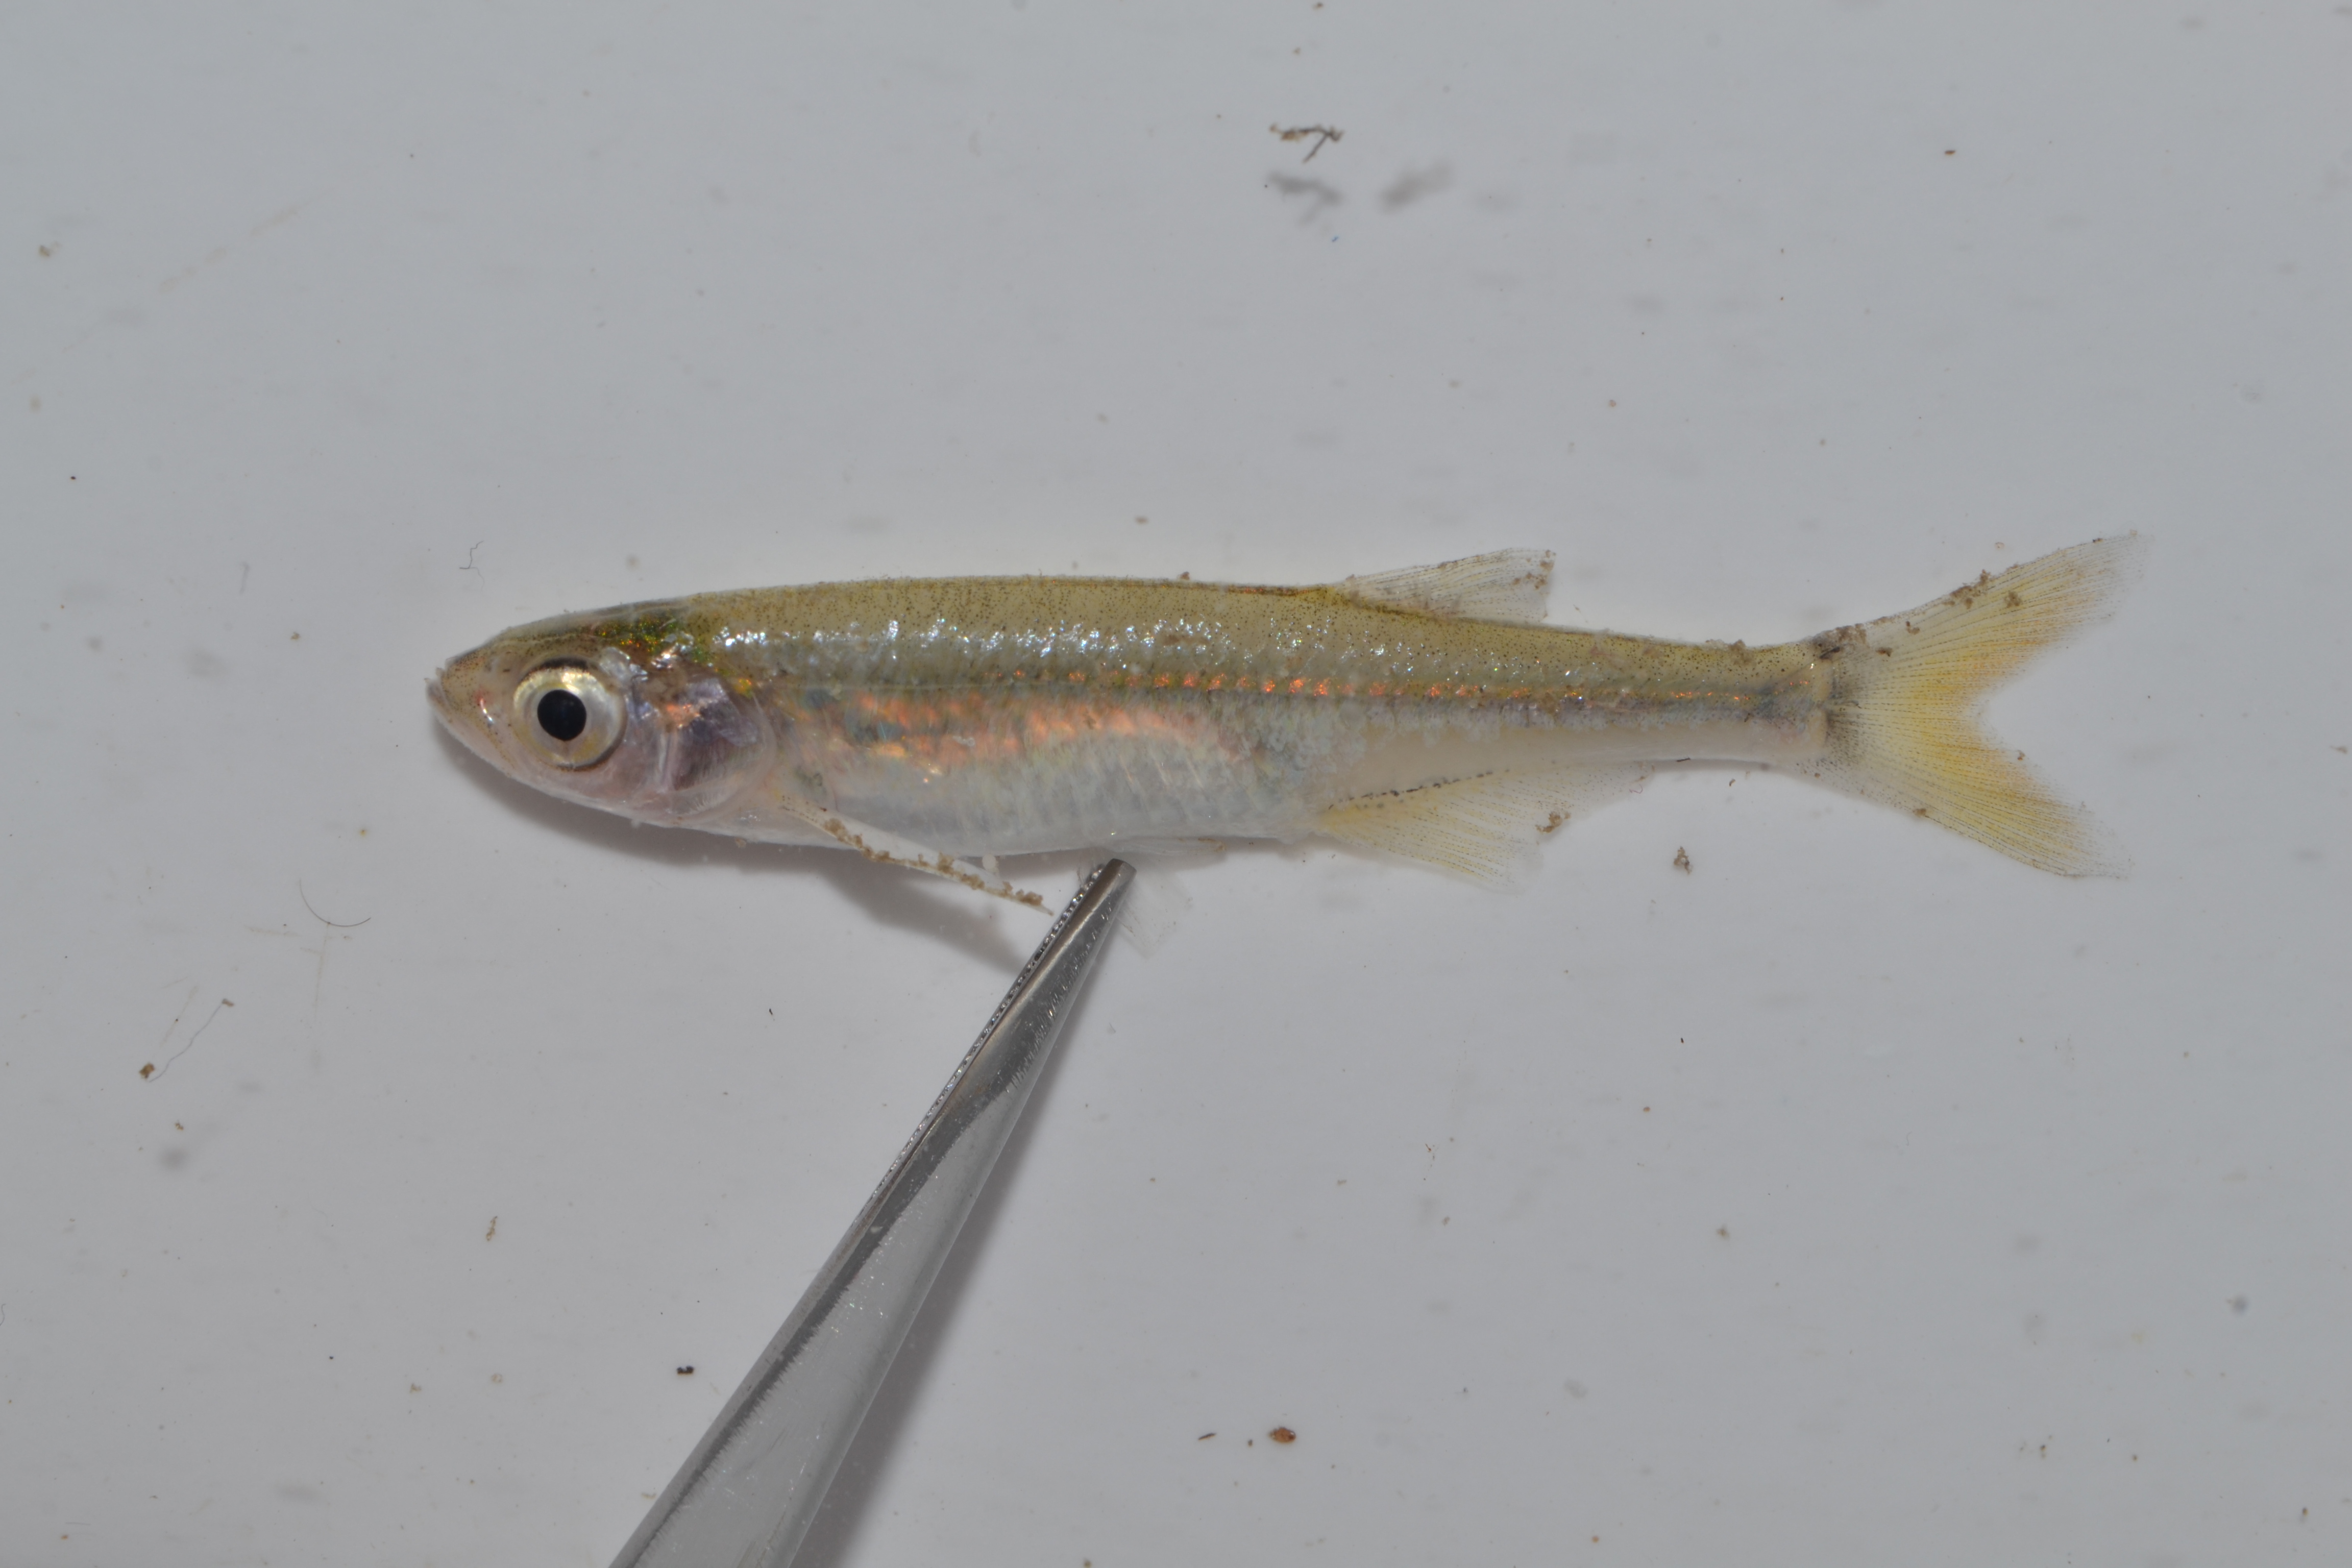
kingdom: Animalia
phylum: Chordata
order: Cypriniformes
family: Cyprinidae
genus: Engraulicypris
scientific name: Engraulicypris brevianalis
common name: River sardine
